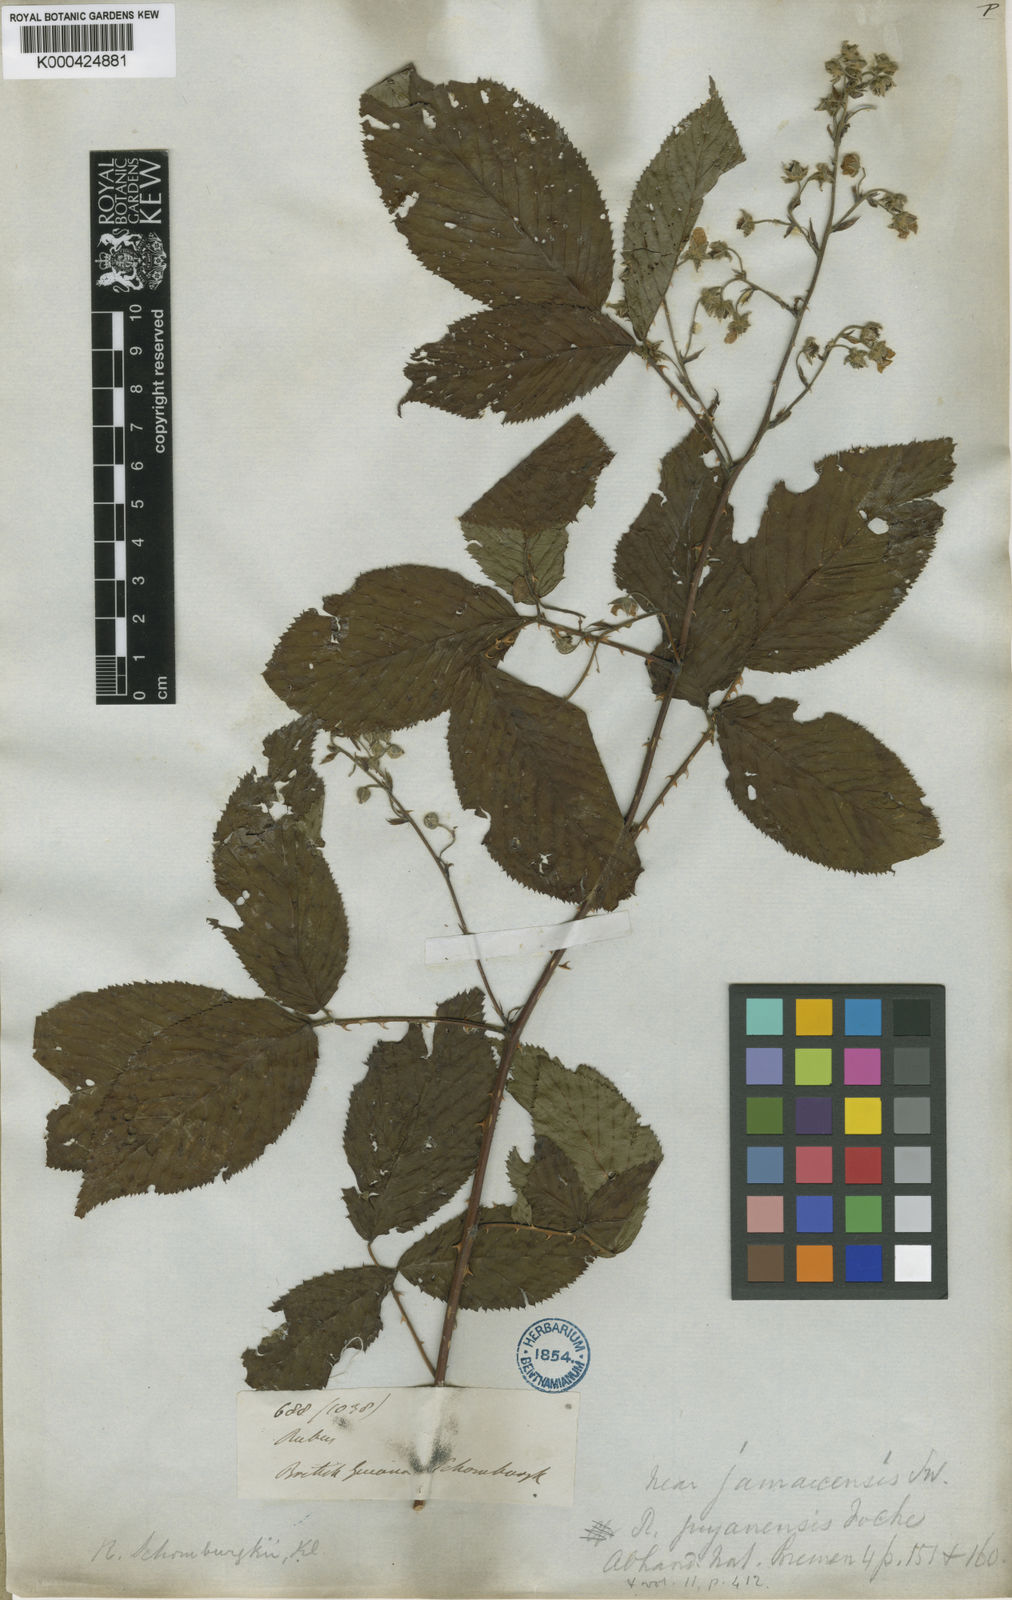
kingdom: Plantae
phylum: Tracheophyta
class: Magnoliopsida
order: Rosales
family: Rosaceae
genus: Rubus
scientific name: Rubus guyanensis
